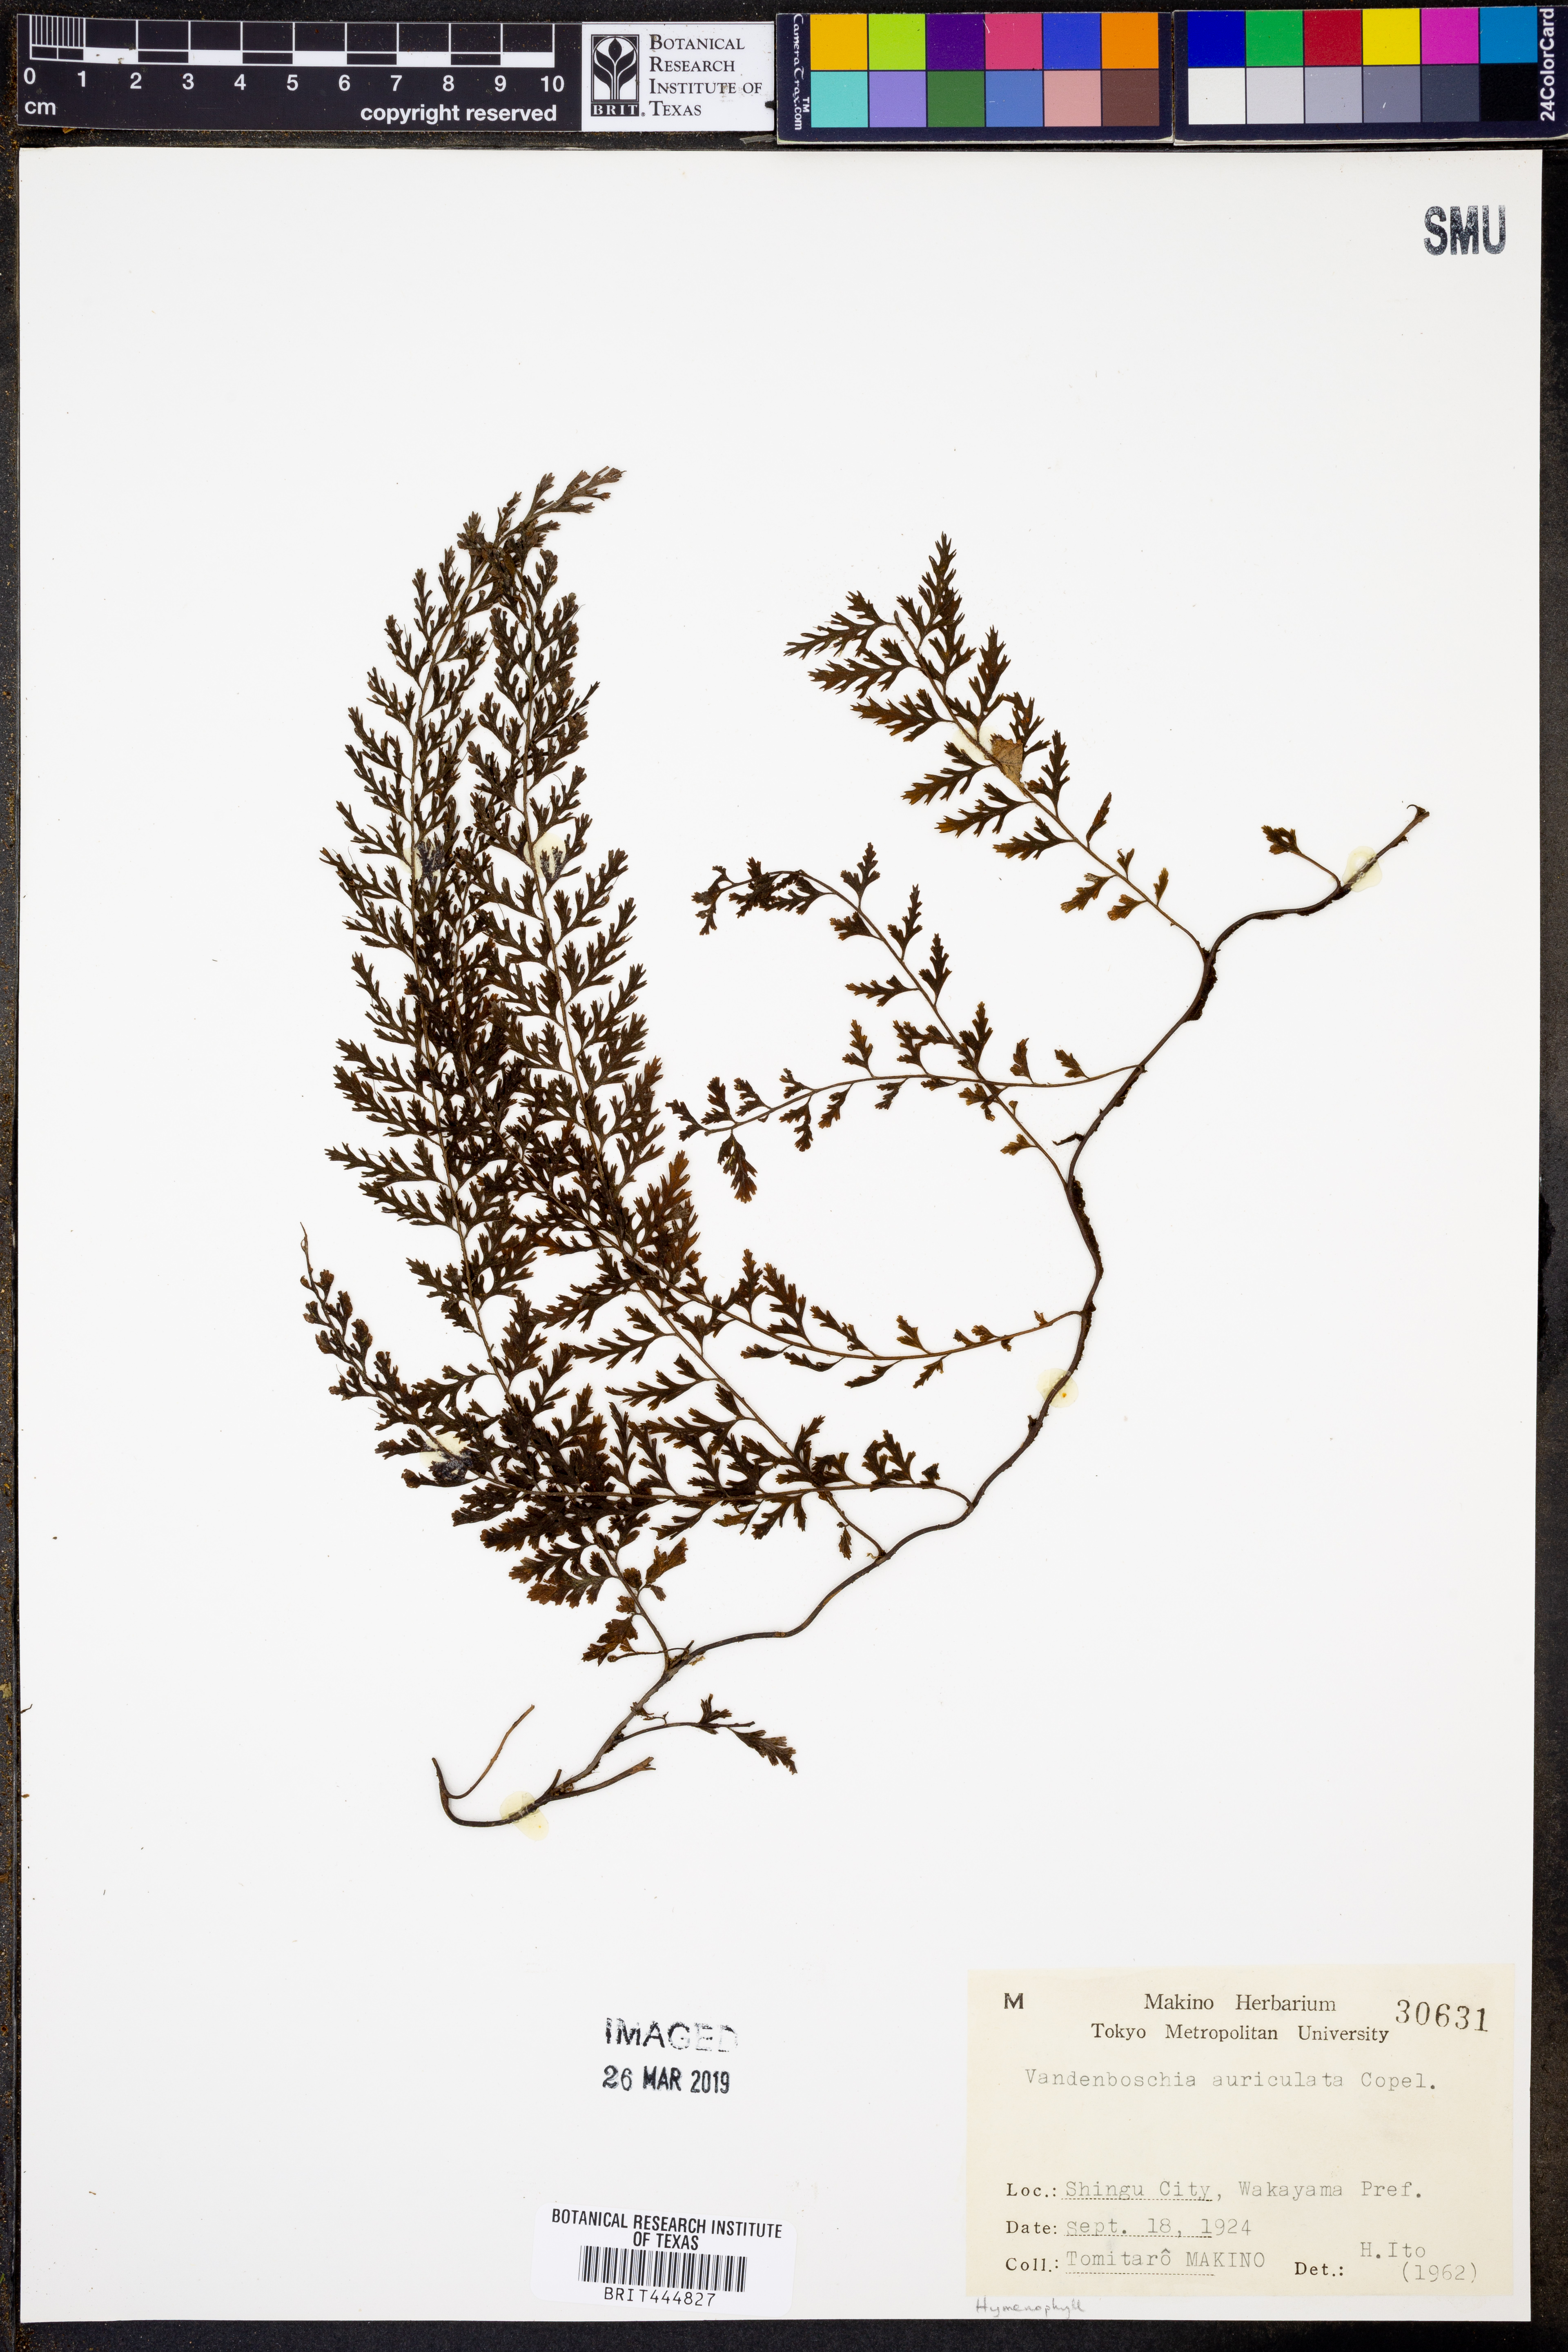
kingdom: Plantae
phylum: Tracheophyta
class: Polypodiopsida
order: Hymenophyllales
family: Hymenophyllaceae
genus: Vandenboschia
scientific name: Vandenboschia auriculata
